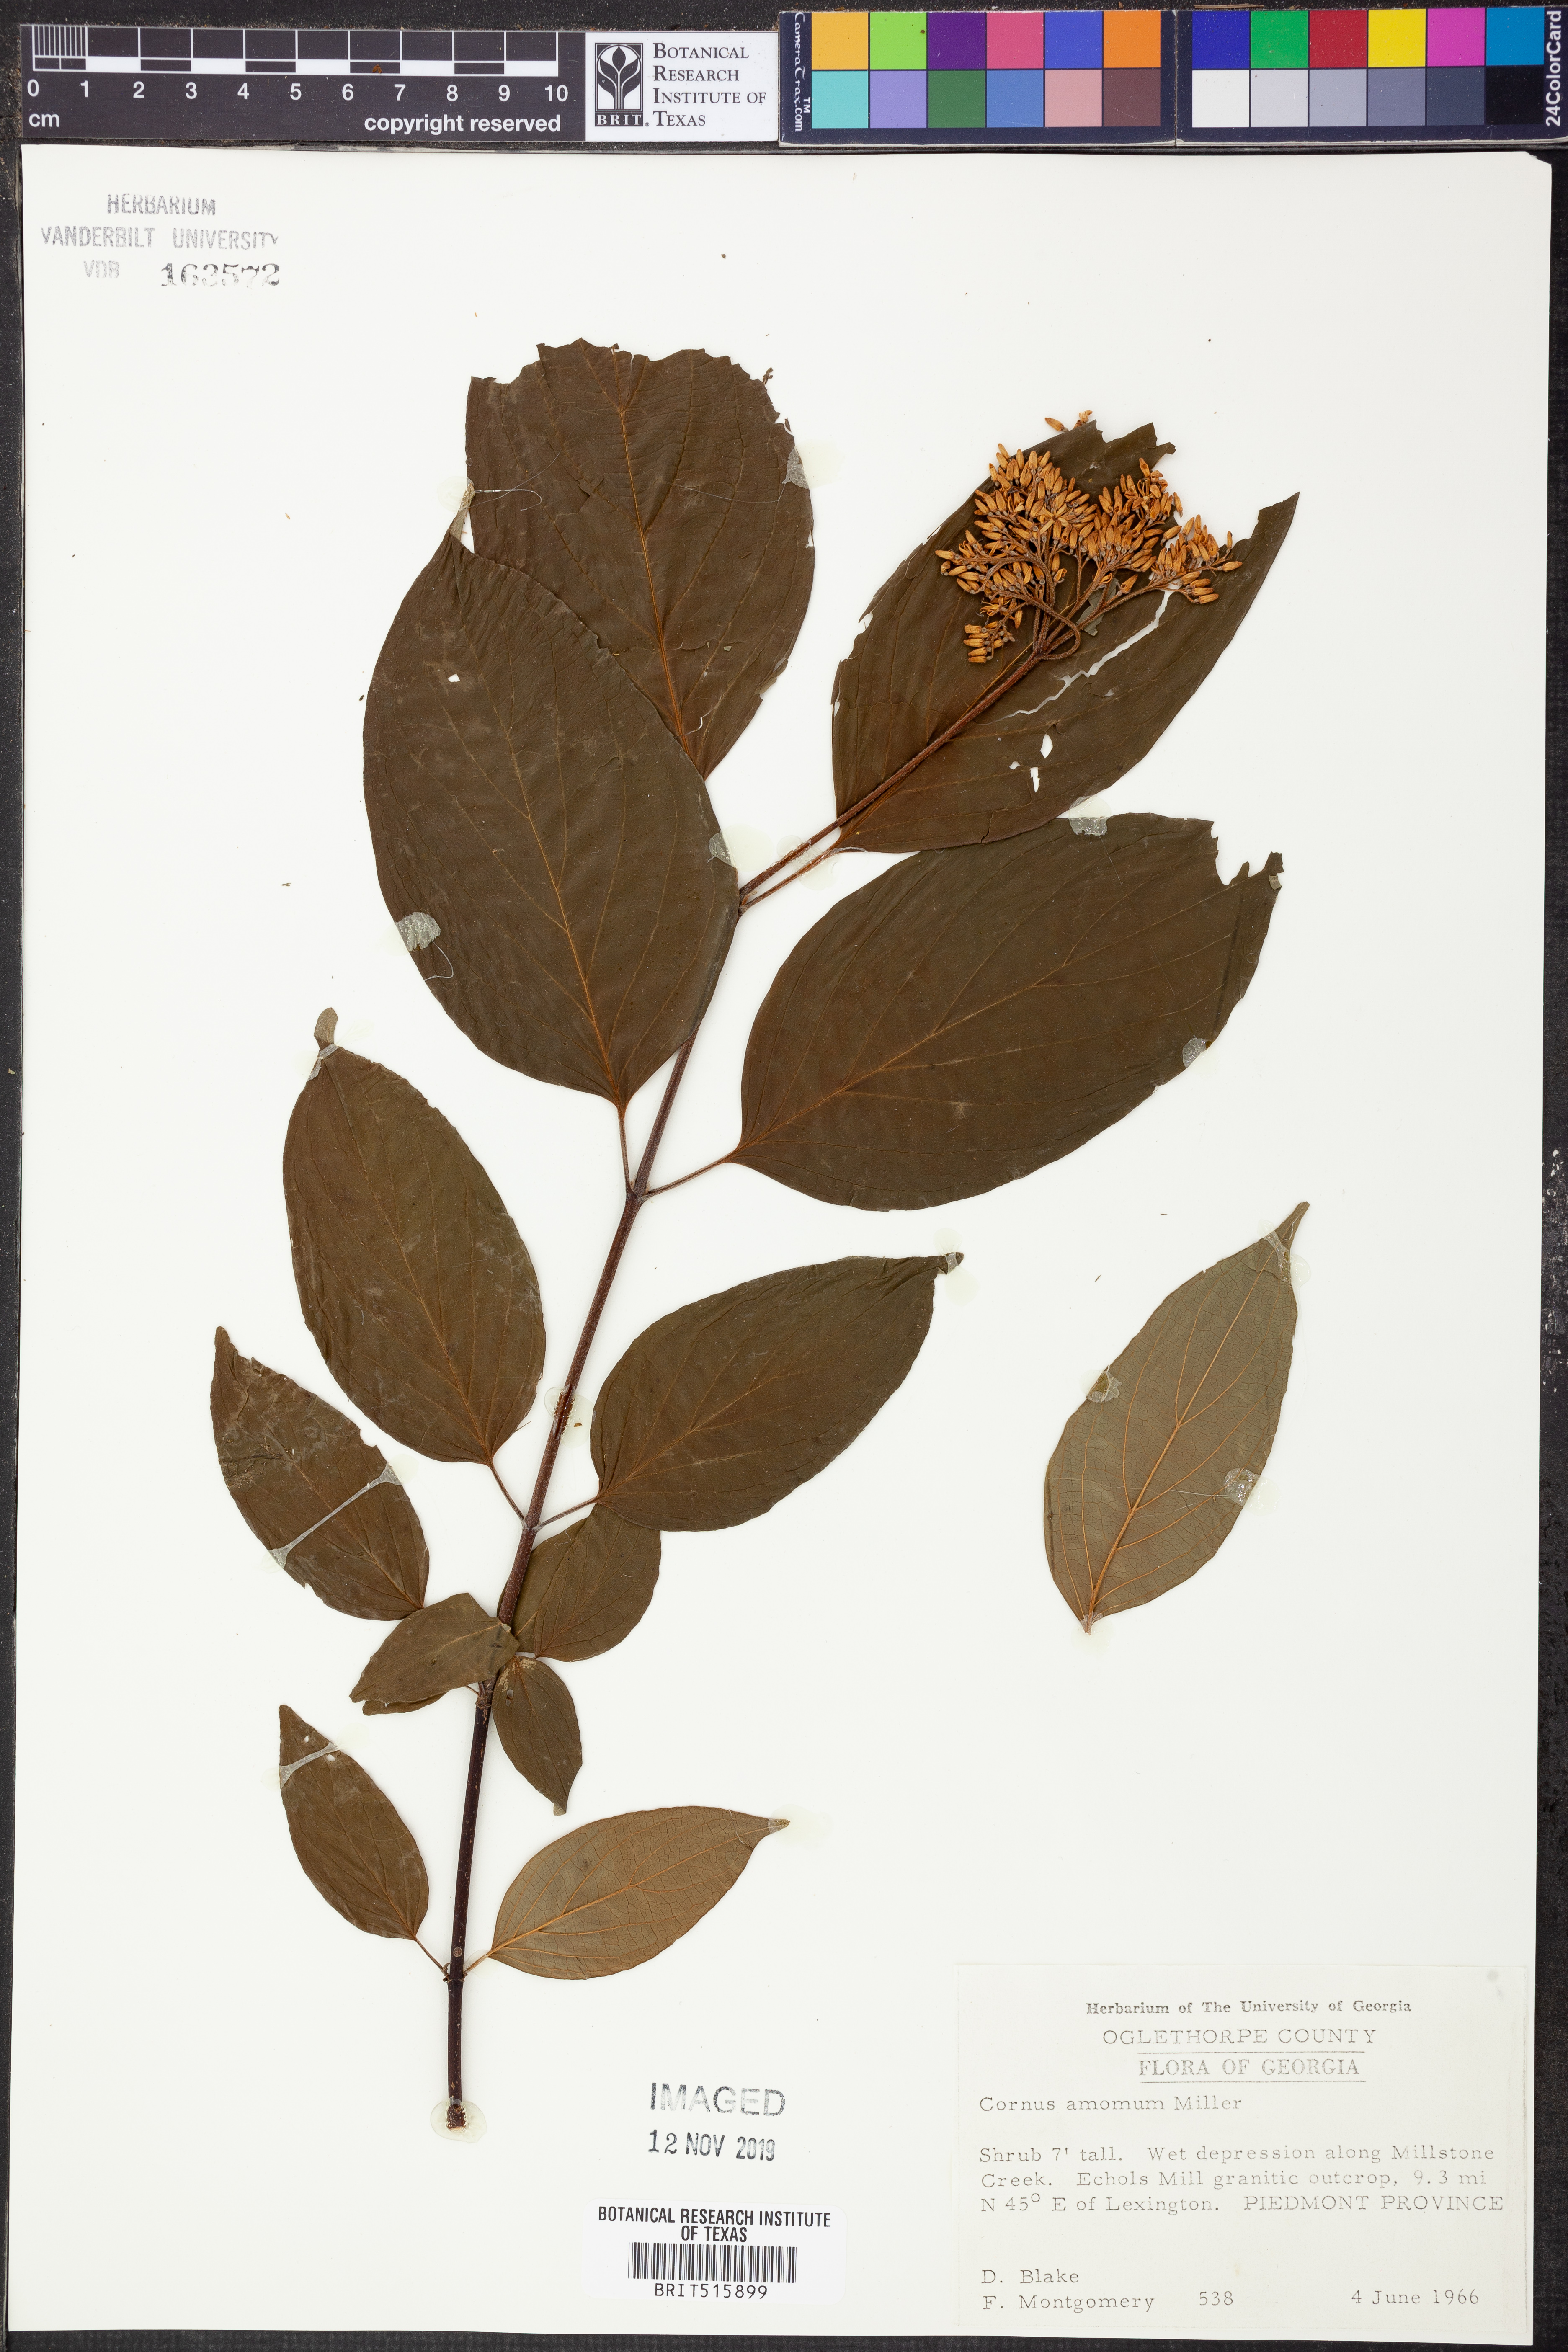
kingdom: Plantae
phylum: Tracheophyta
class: Magnoliopsida
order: Cornales
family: Cornaceae
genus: Cornus
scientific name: Cornus amomum
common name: Silky dogwood
